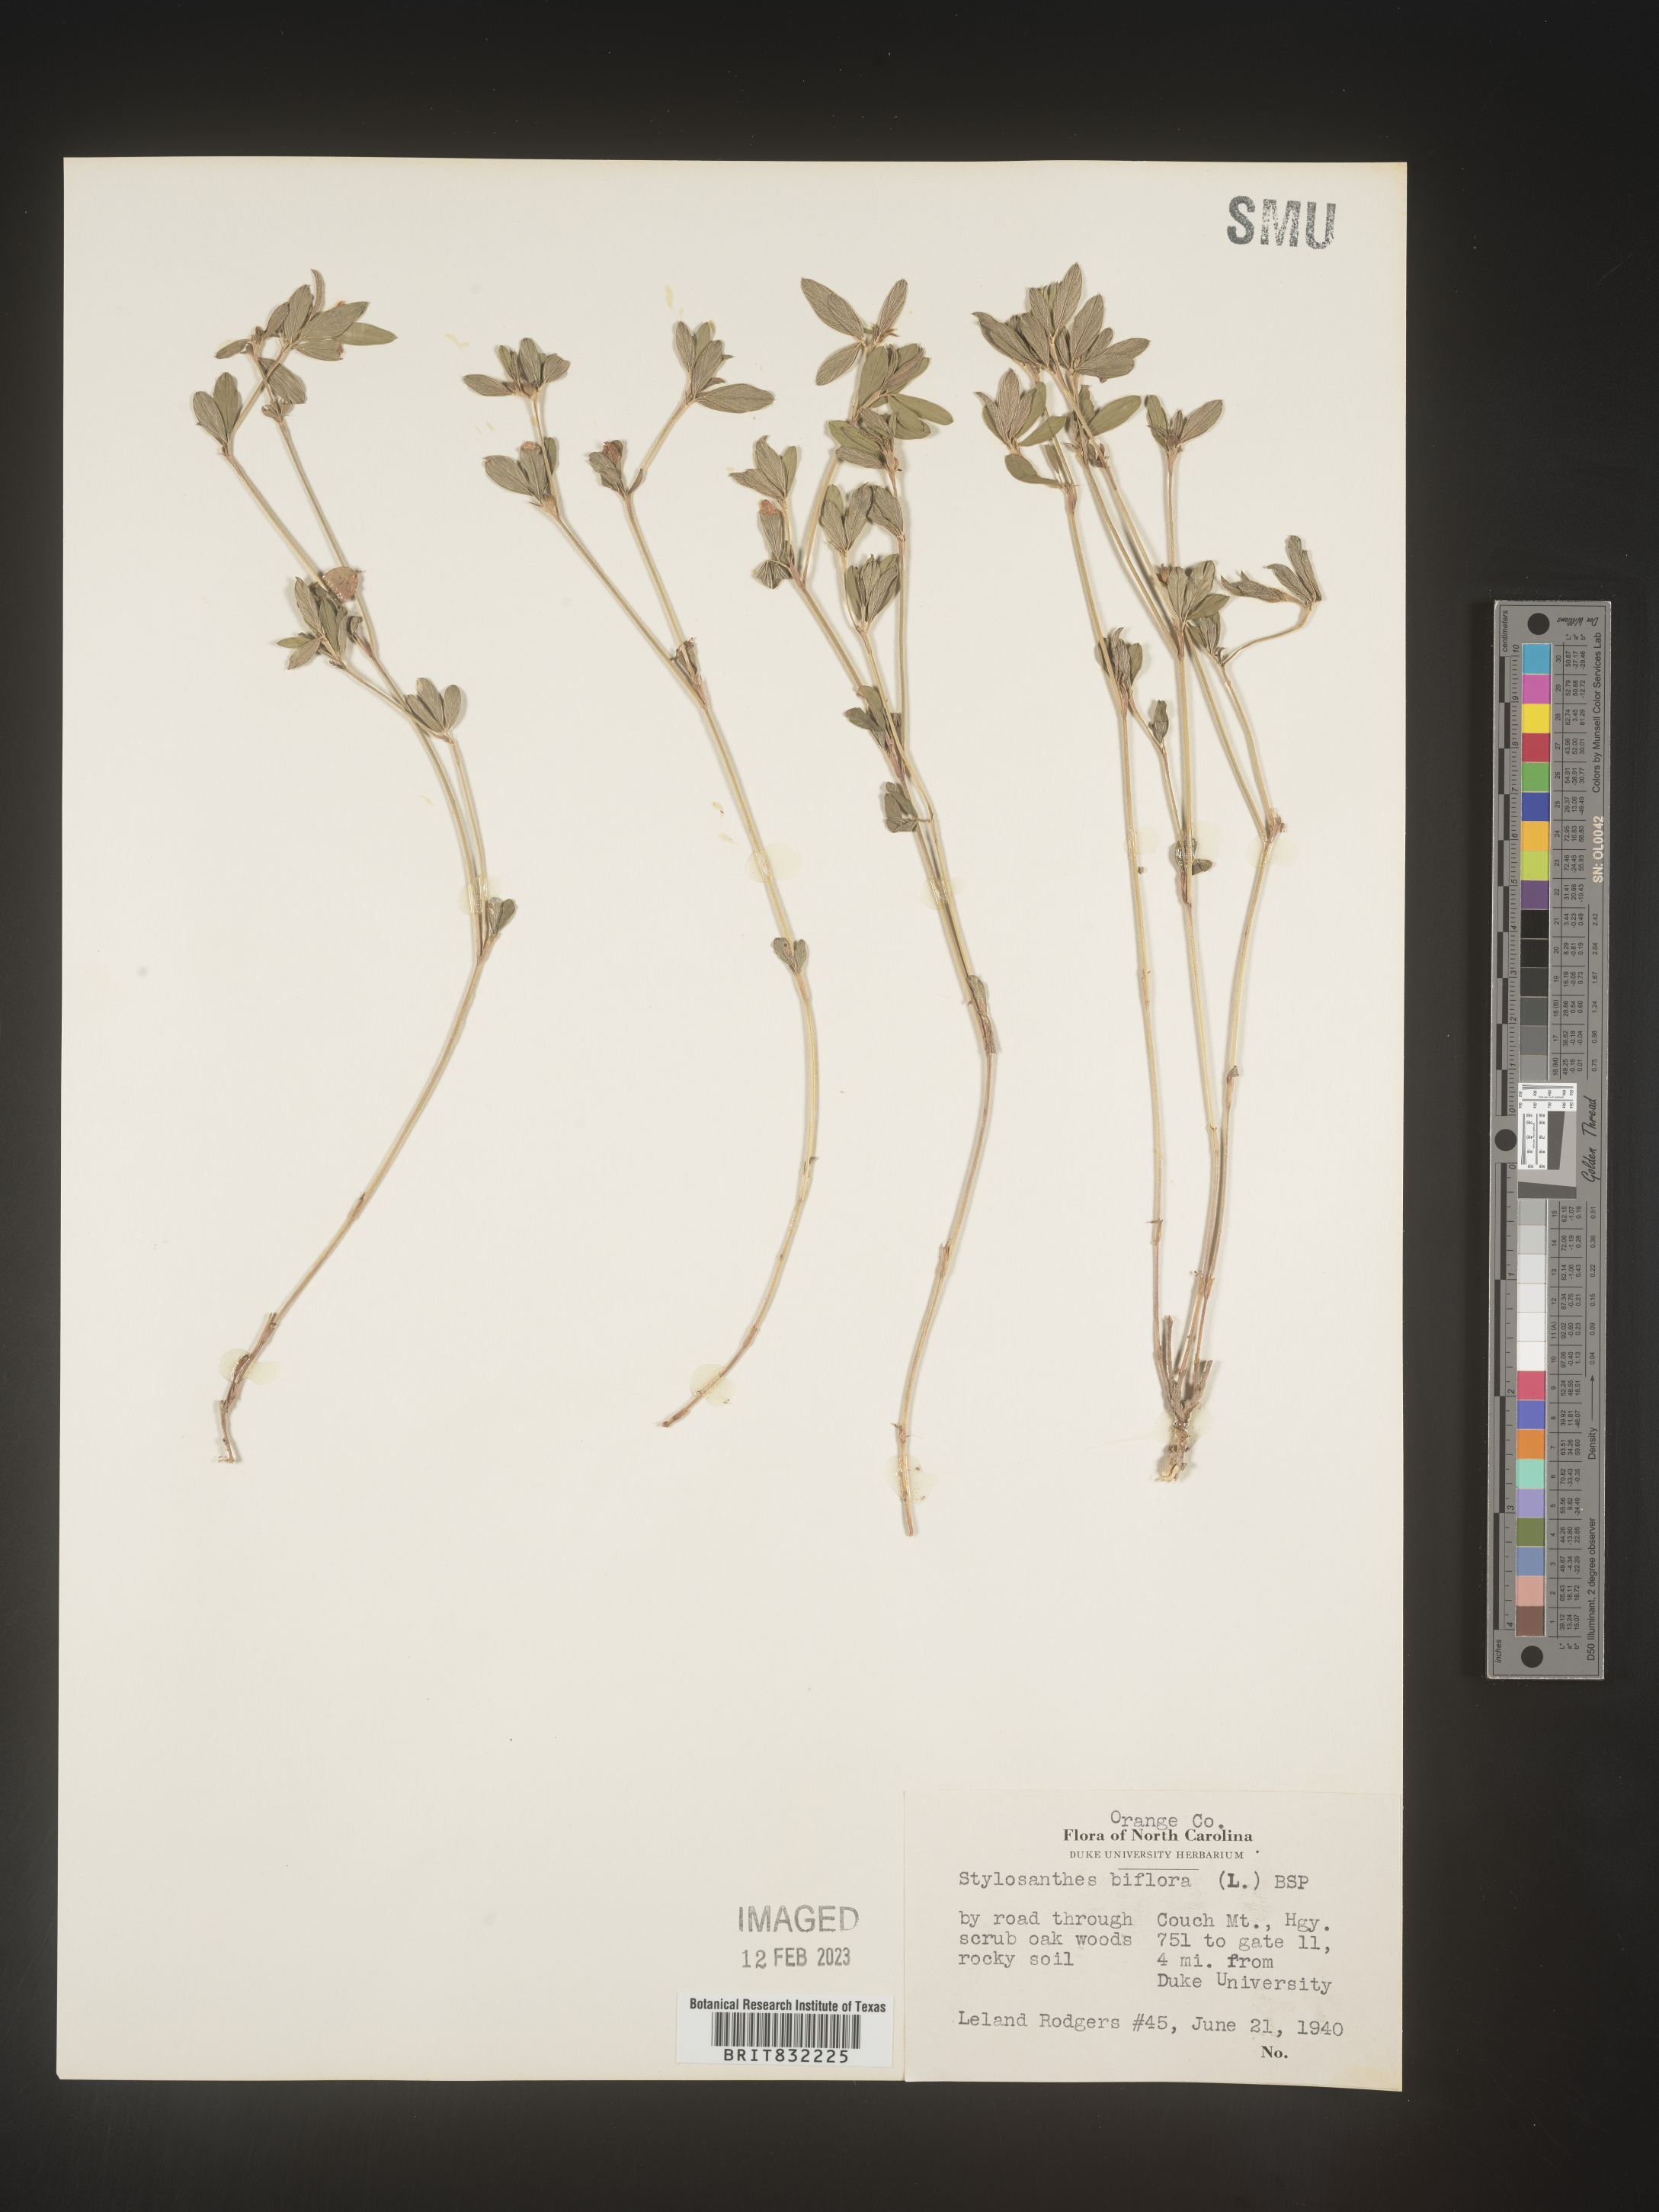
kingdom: Plantae
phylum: Tracheophyta
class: Magnoliopsida
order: Fabales
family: Fabaceae
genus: Stylosanthes
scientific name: Stylosanthes biflora
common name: Two-flower pencil-flower
